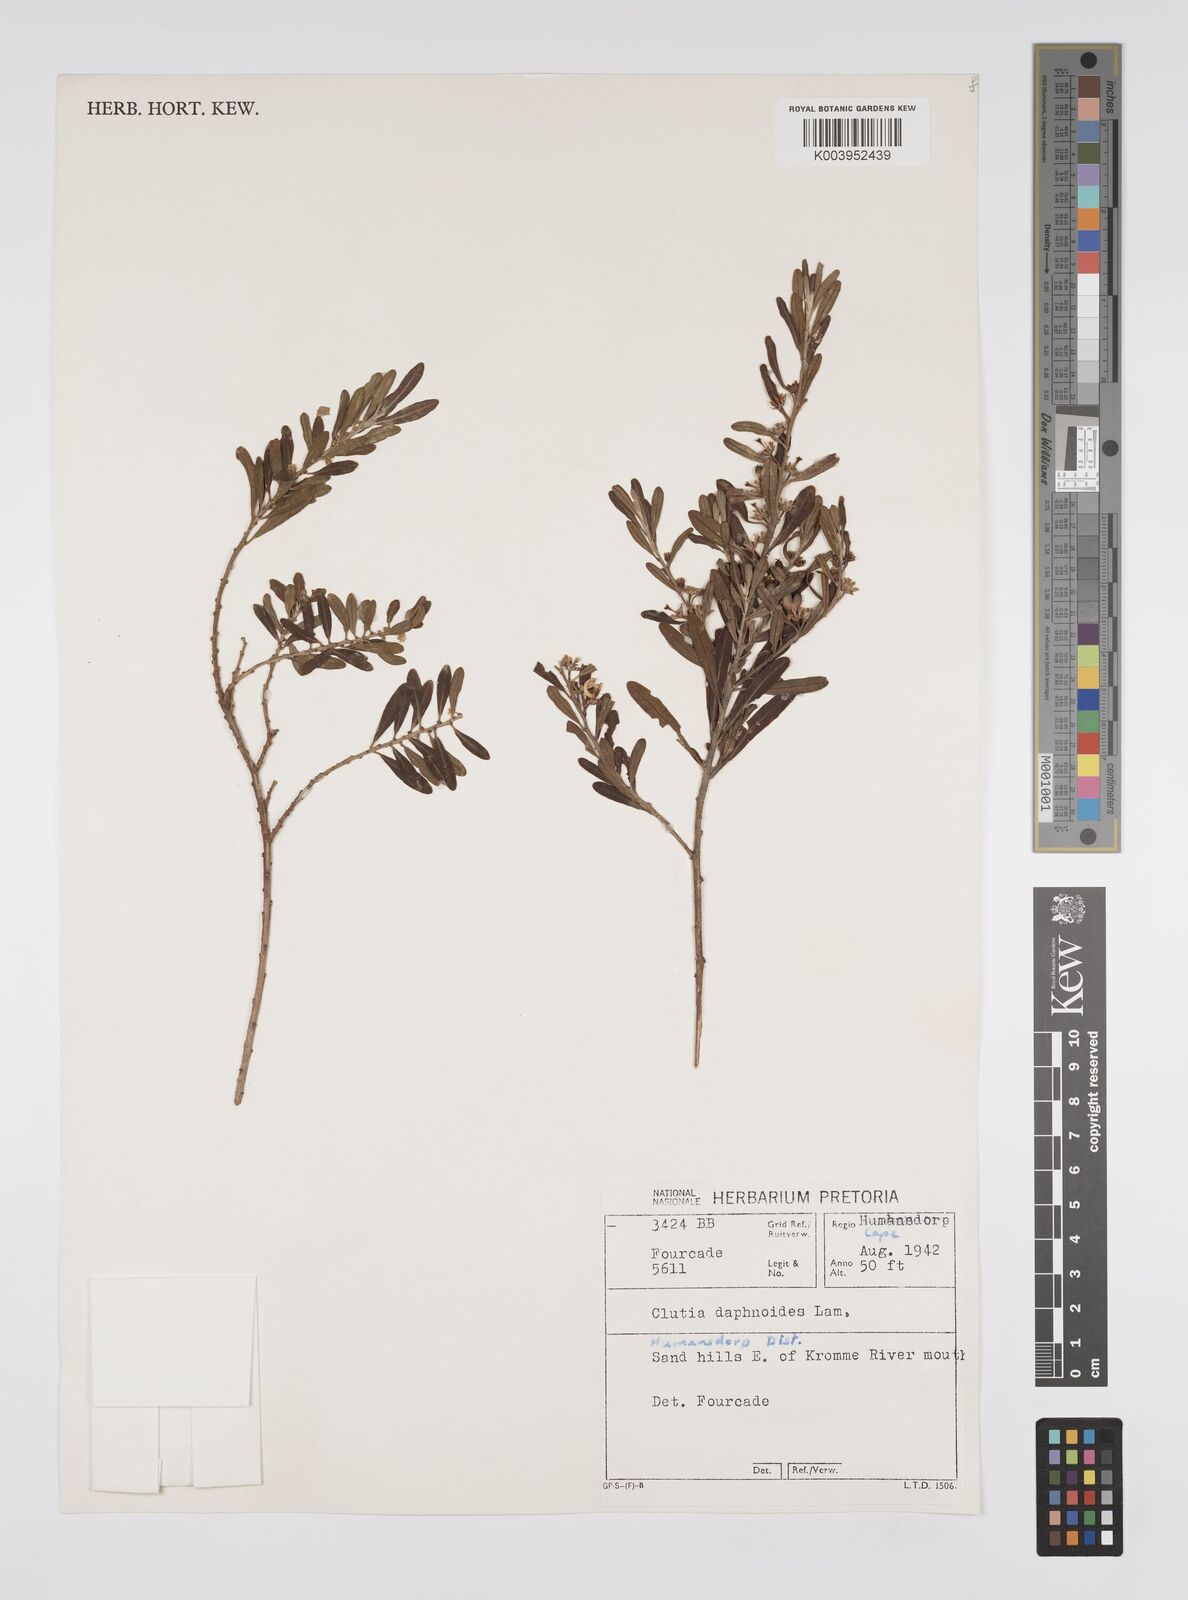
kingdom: Plantae
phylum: Tracheophyta
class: Magnoliopsida
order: Malpighiales
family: Peraceae
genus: Clutia
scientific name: Clutia daphnoides
